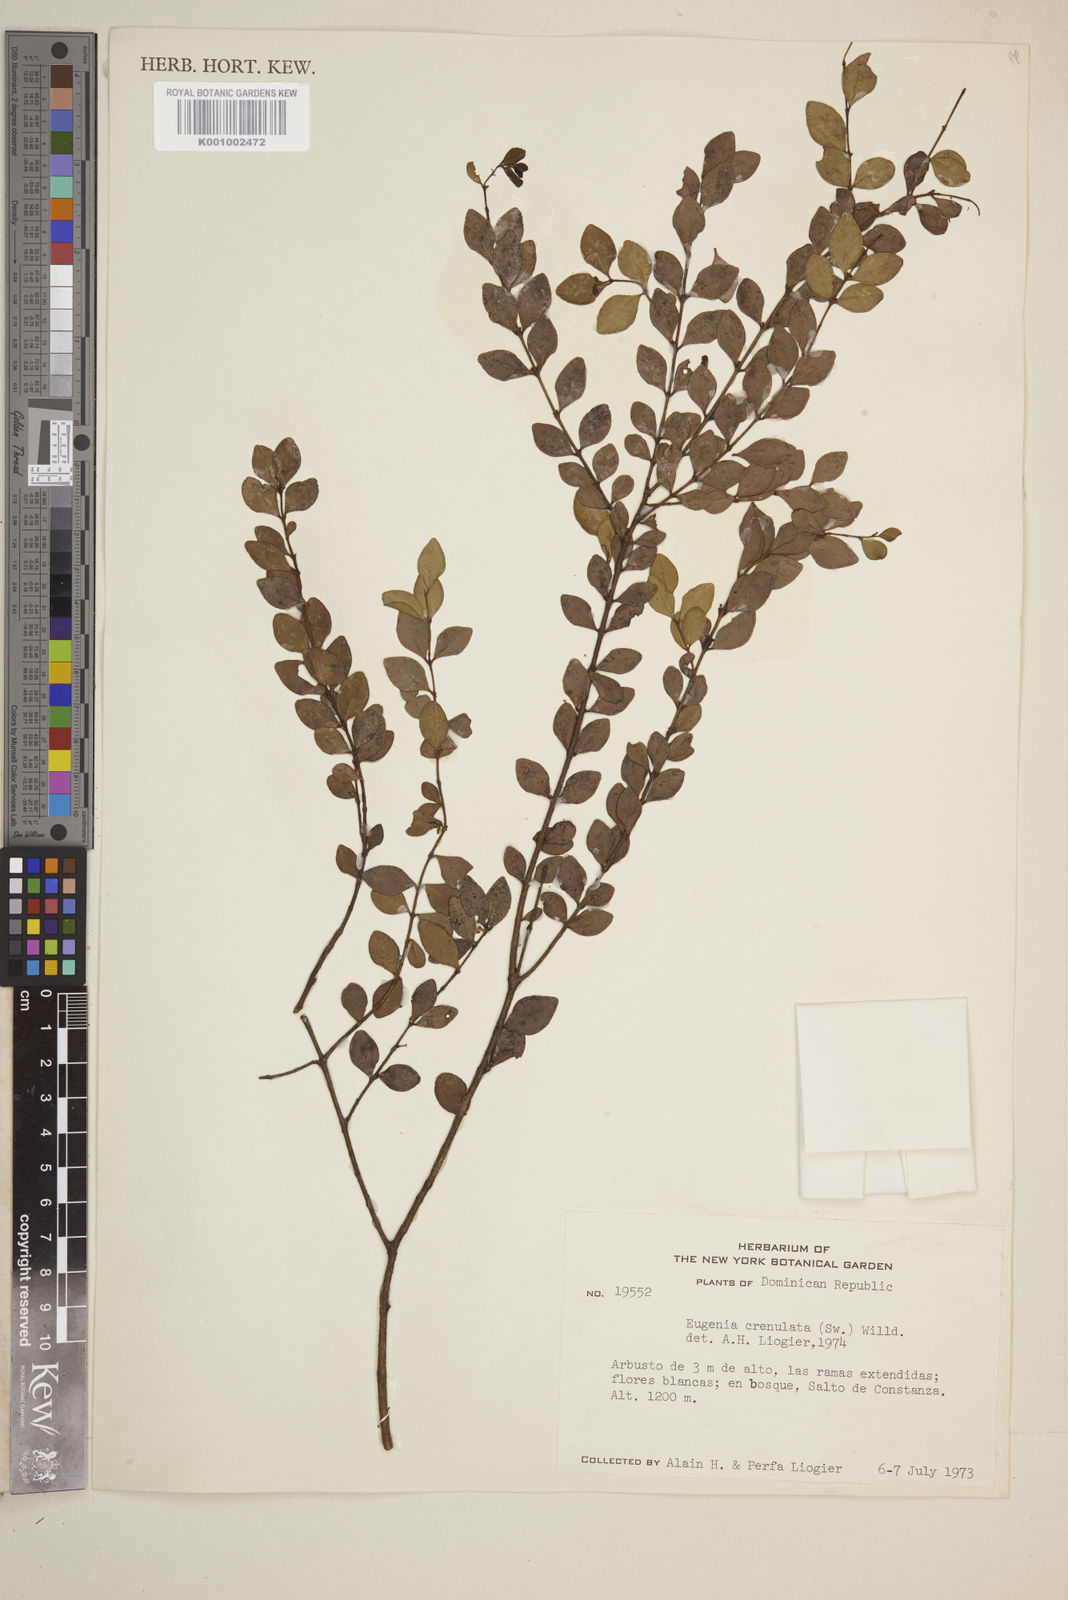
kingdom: Plantae
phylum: Tracheophyta
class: Magnoliopsida
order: Myrtales
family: Myrtaceae
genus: Eugenia
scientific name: Eugenia crenulata
